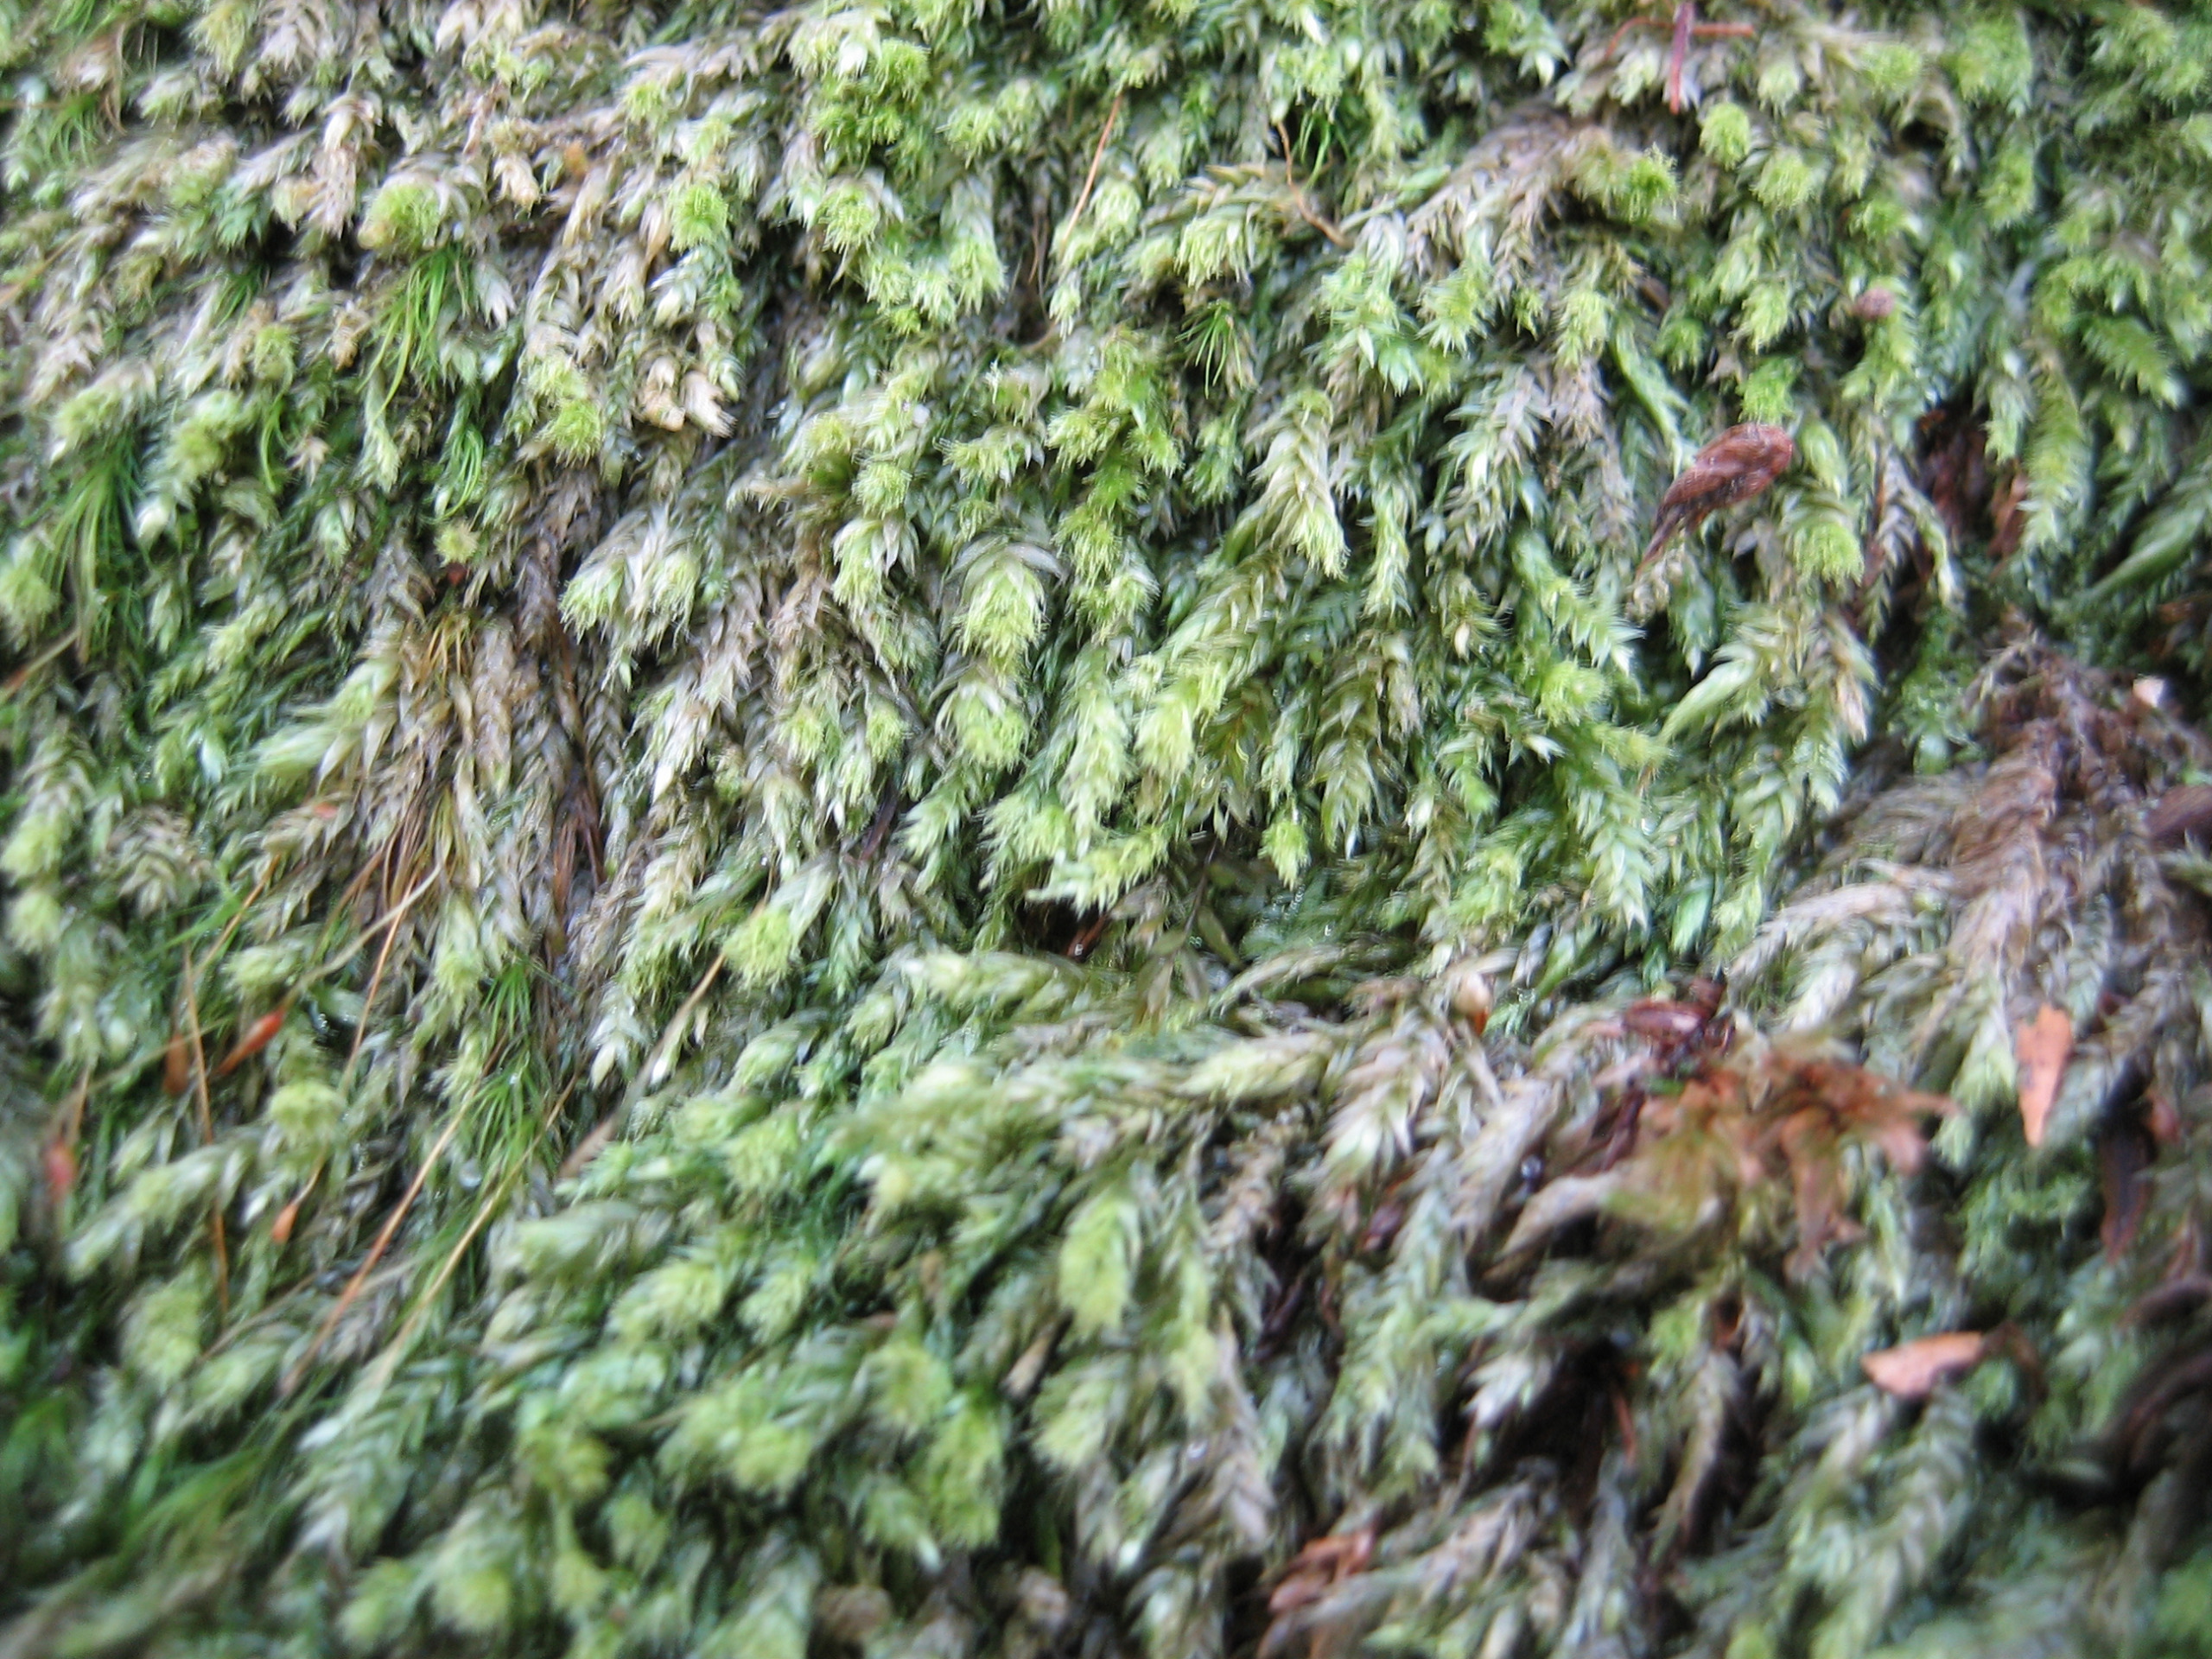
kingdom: Plantae
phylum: Bryophyta
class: Bryopsida
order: Hypnales
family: Plagiotheciaceae
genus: Pseudotaxiphyllum
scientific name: Pseudotaxiphyllum elegans
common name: Skinnende ynglegren
